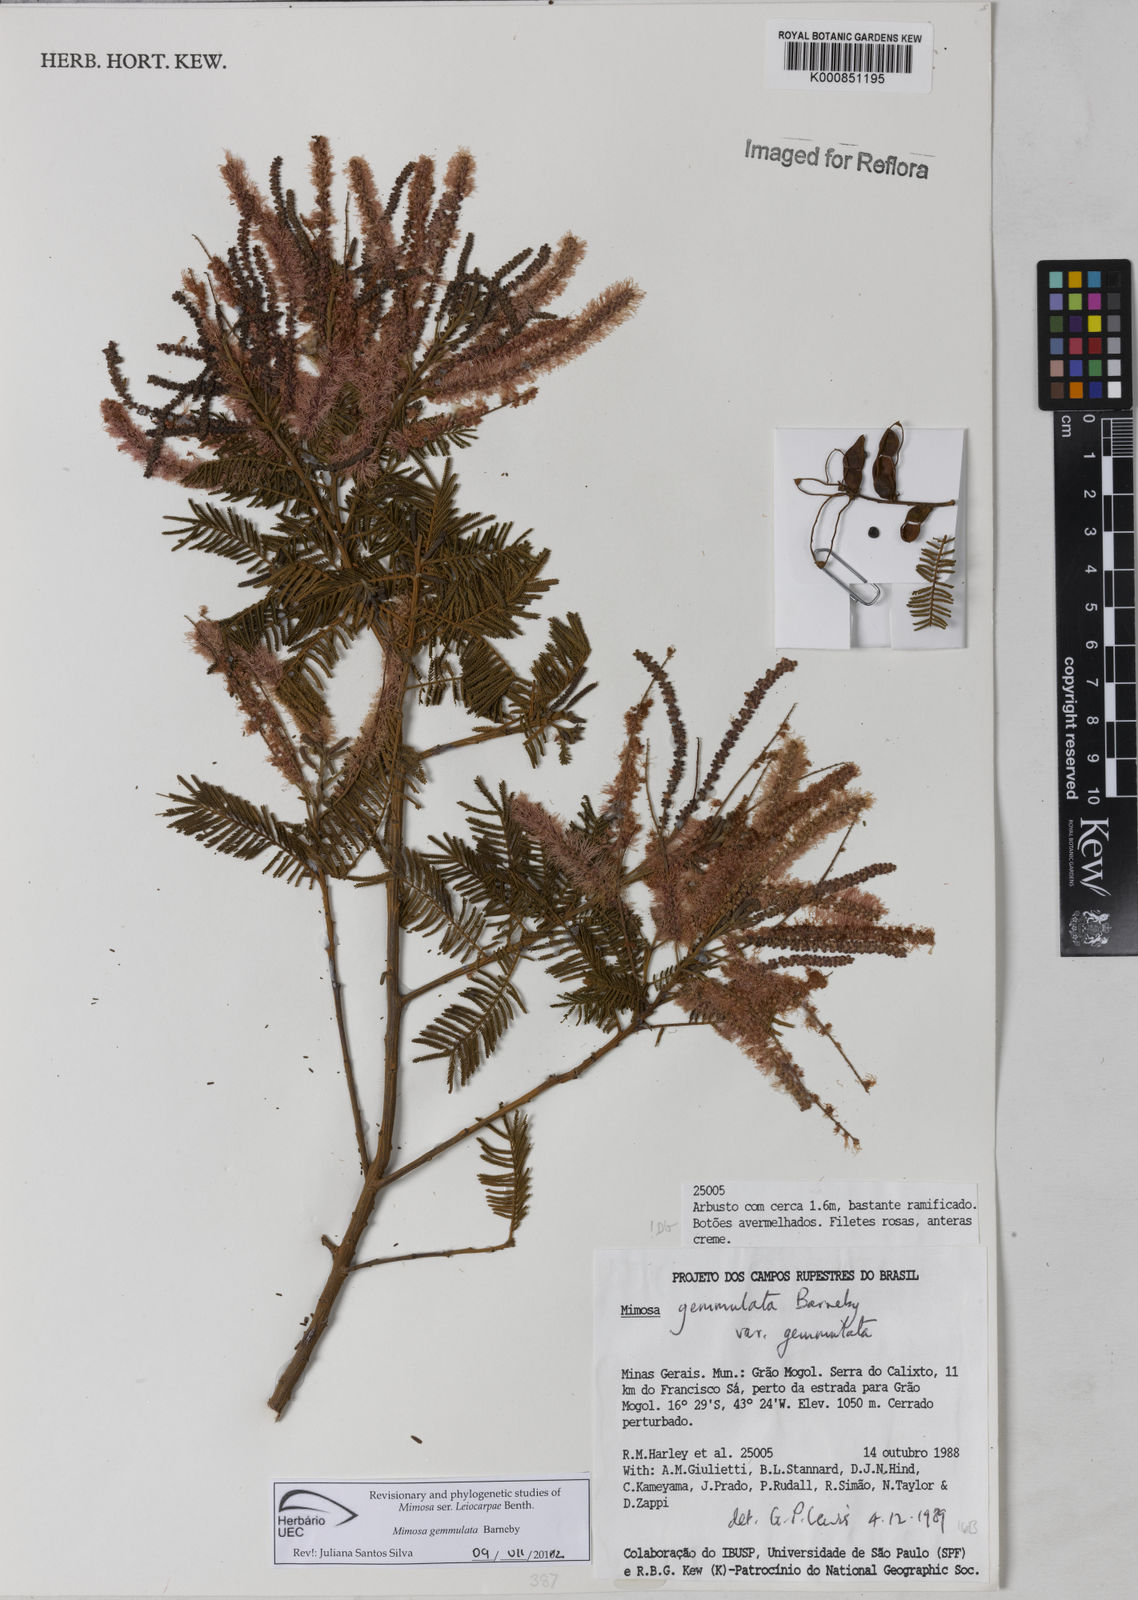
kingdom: Plantae
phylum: Tracheophyta
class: Magnoliopsida
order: Fabales
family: Fabaceae
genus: Mimosa
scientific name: Mimosa gemmulata
